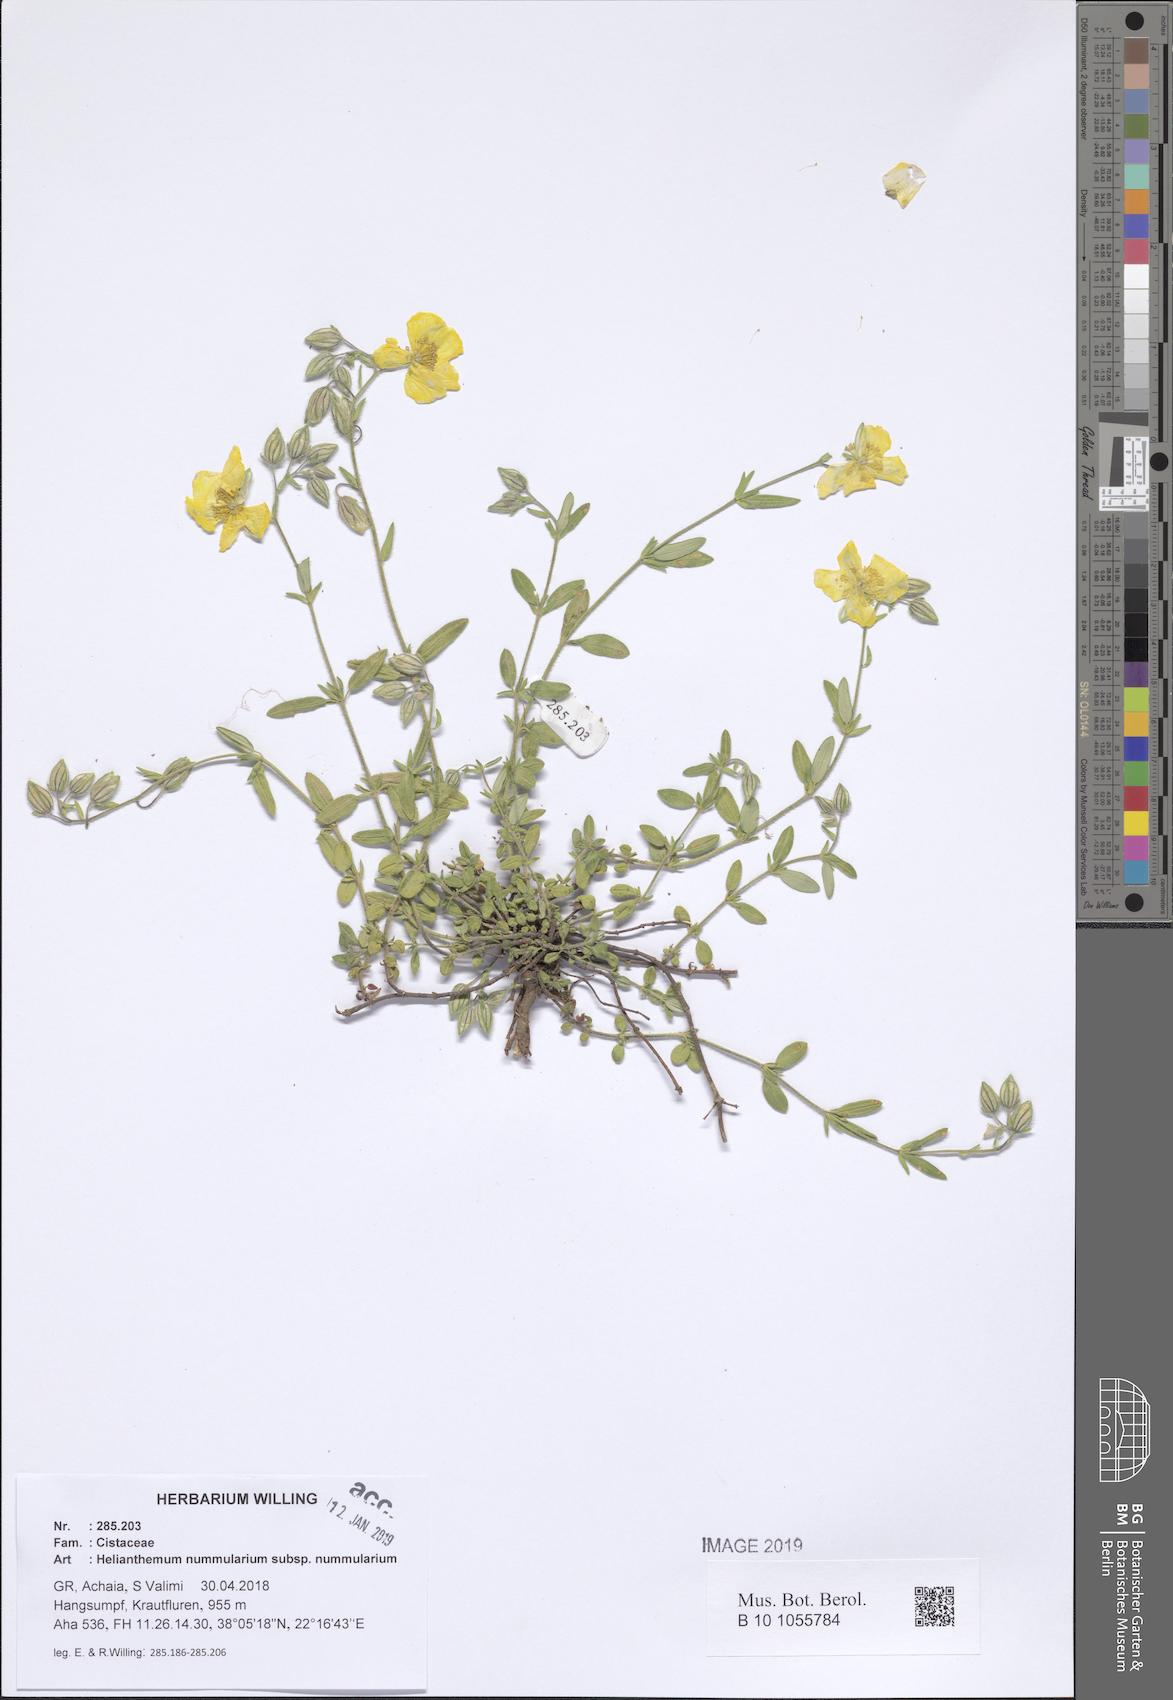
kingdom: Plantae
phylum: Tracheophyta
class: Magnoliopsida
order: Malvales
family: Cistaceae
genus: Helianthemum
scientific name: Helianthemum nummularium
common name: Common rock-rose
